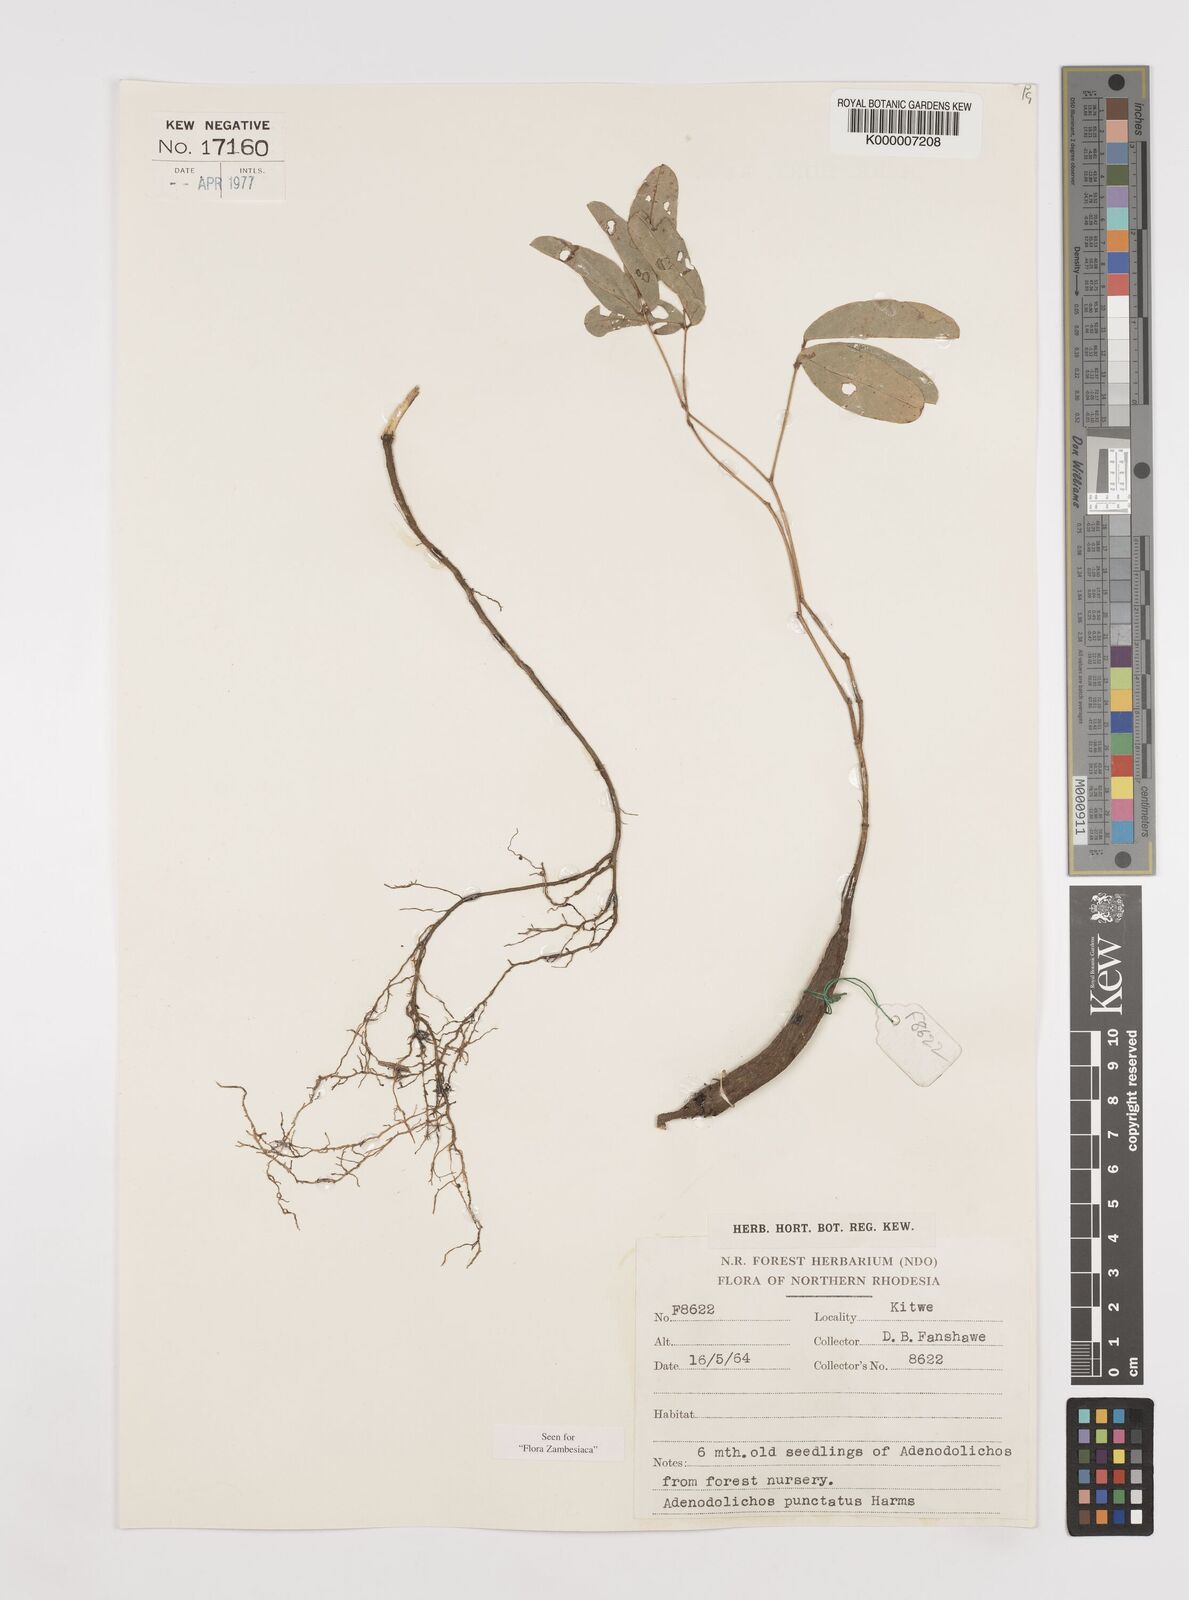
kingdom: Plantae
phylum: Tracheophyta
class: Magnoliopsida
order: Fabales
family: Fabaceae
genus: Adenodolichos
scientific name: Adenodolichos punctatus
